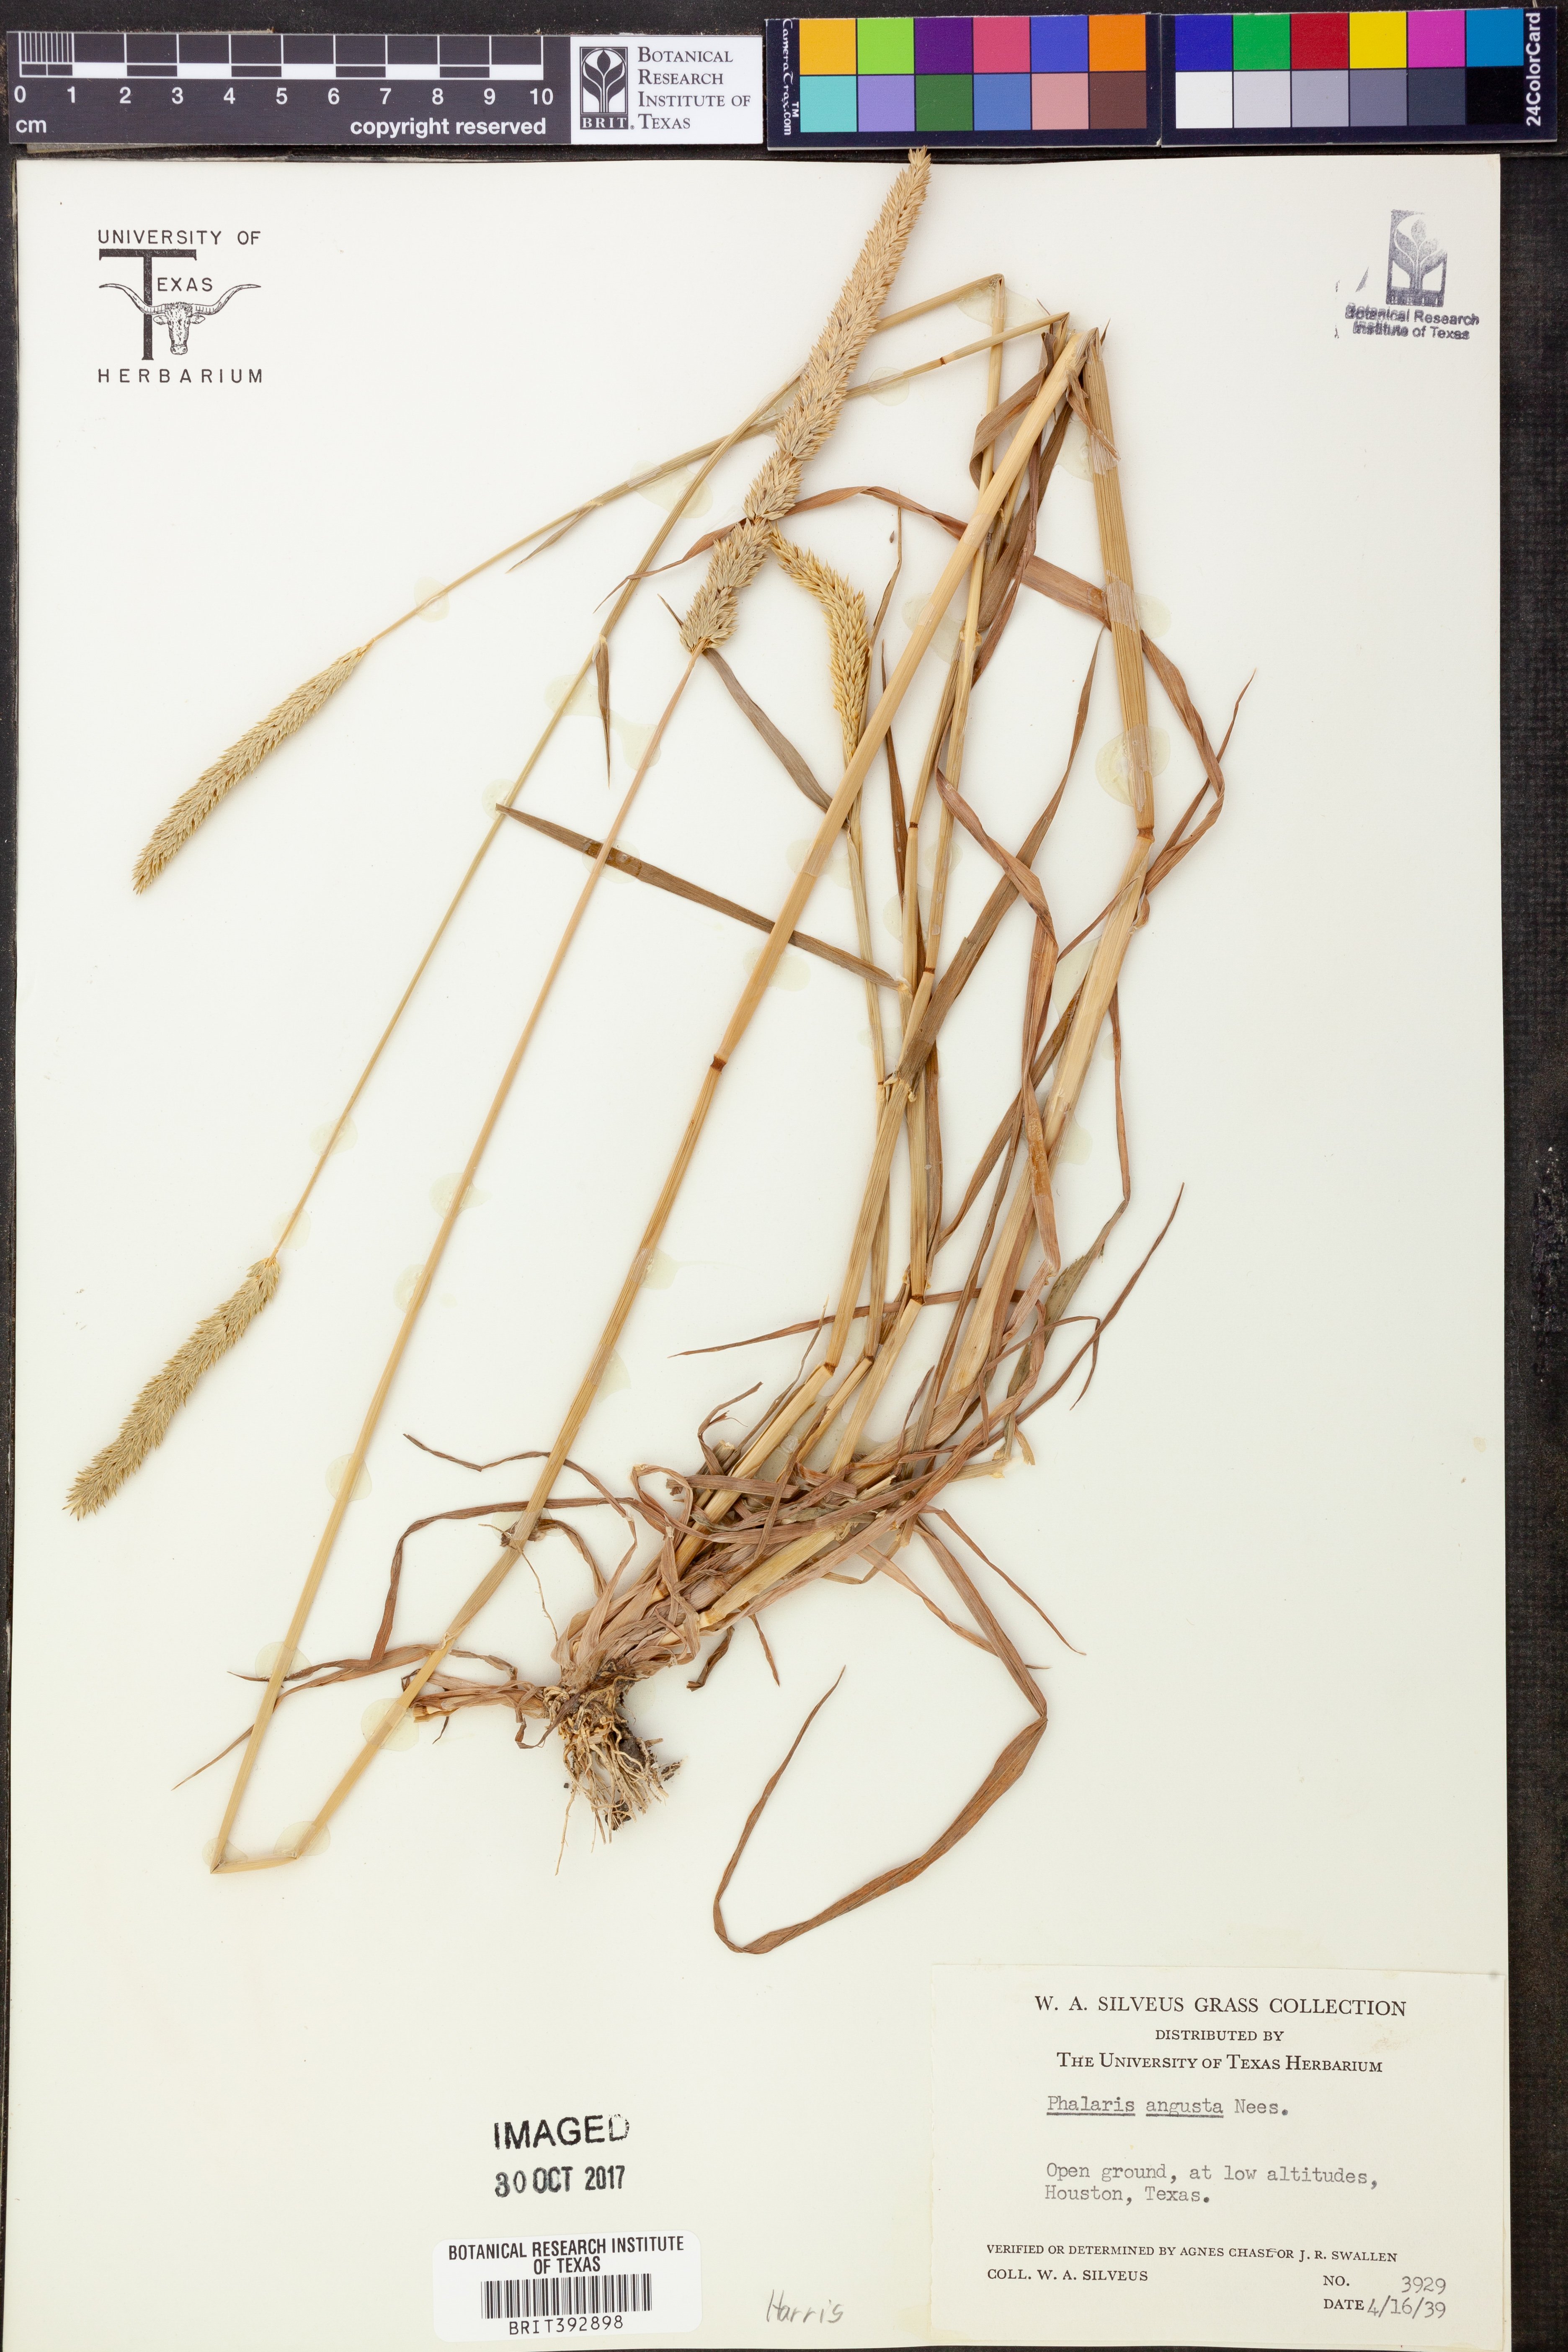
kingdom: Plantae
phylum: Tracheophyta
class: Liliopsida
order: Poales
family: Poaceae
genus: Phalaris
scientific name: Phalaris angusta
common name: Narrow canary grass
